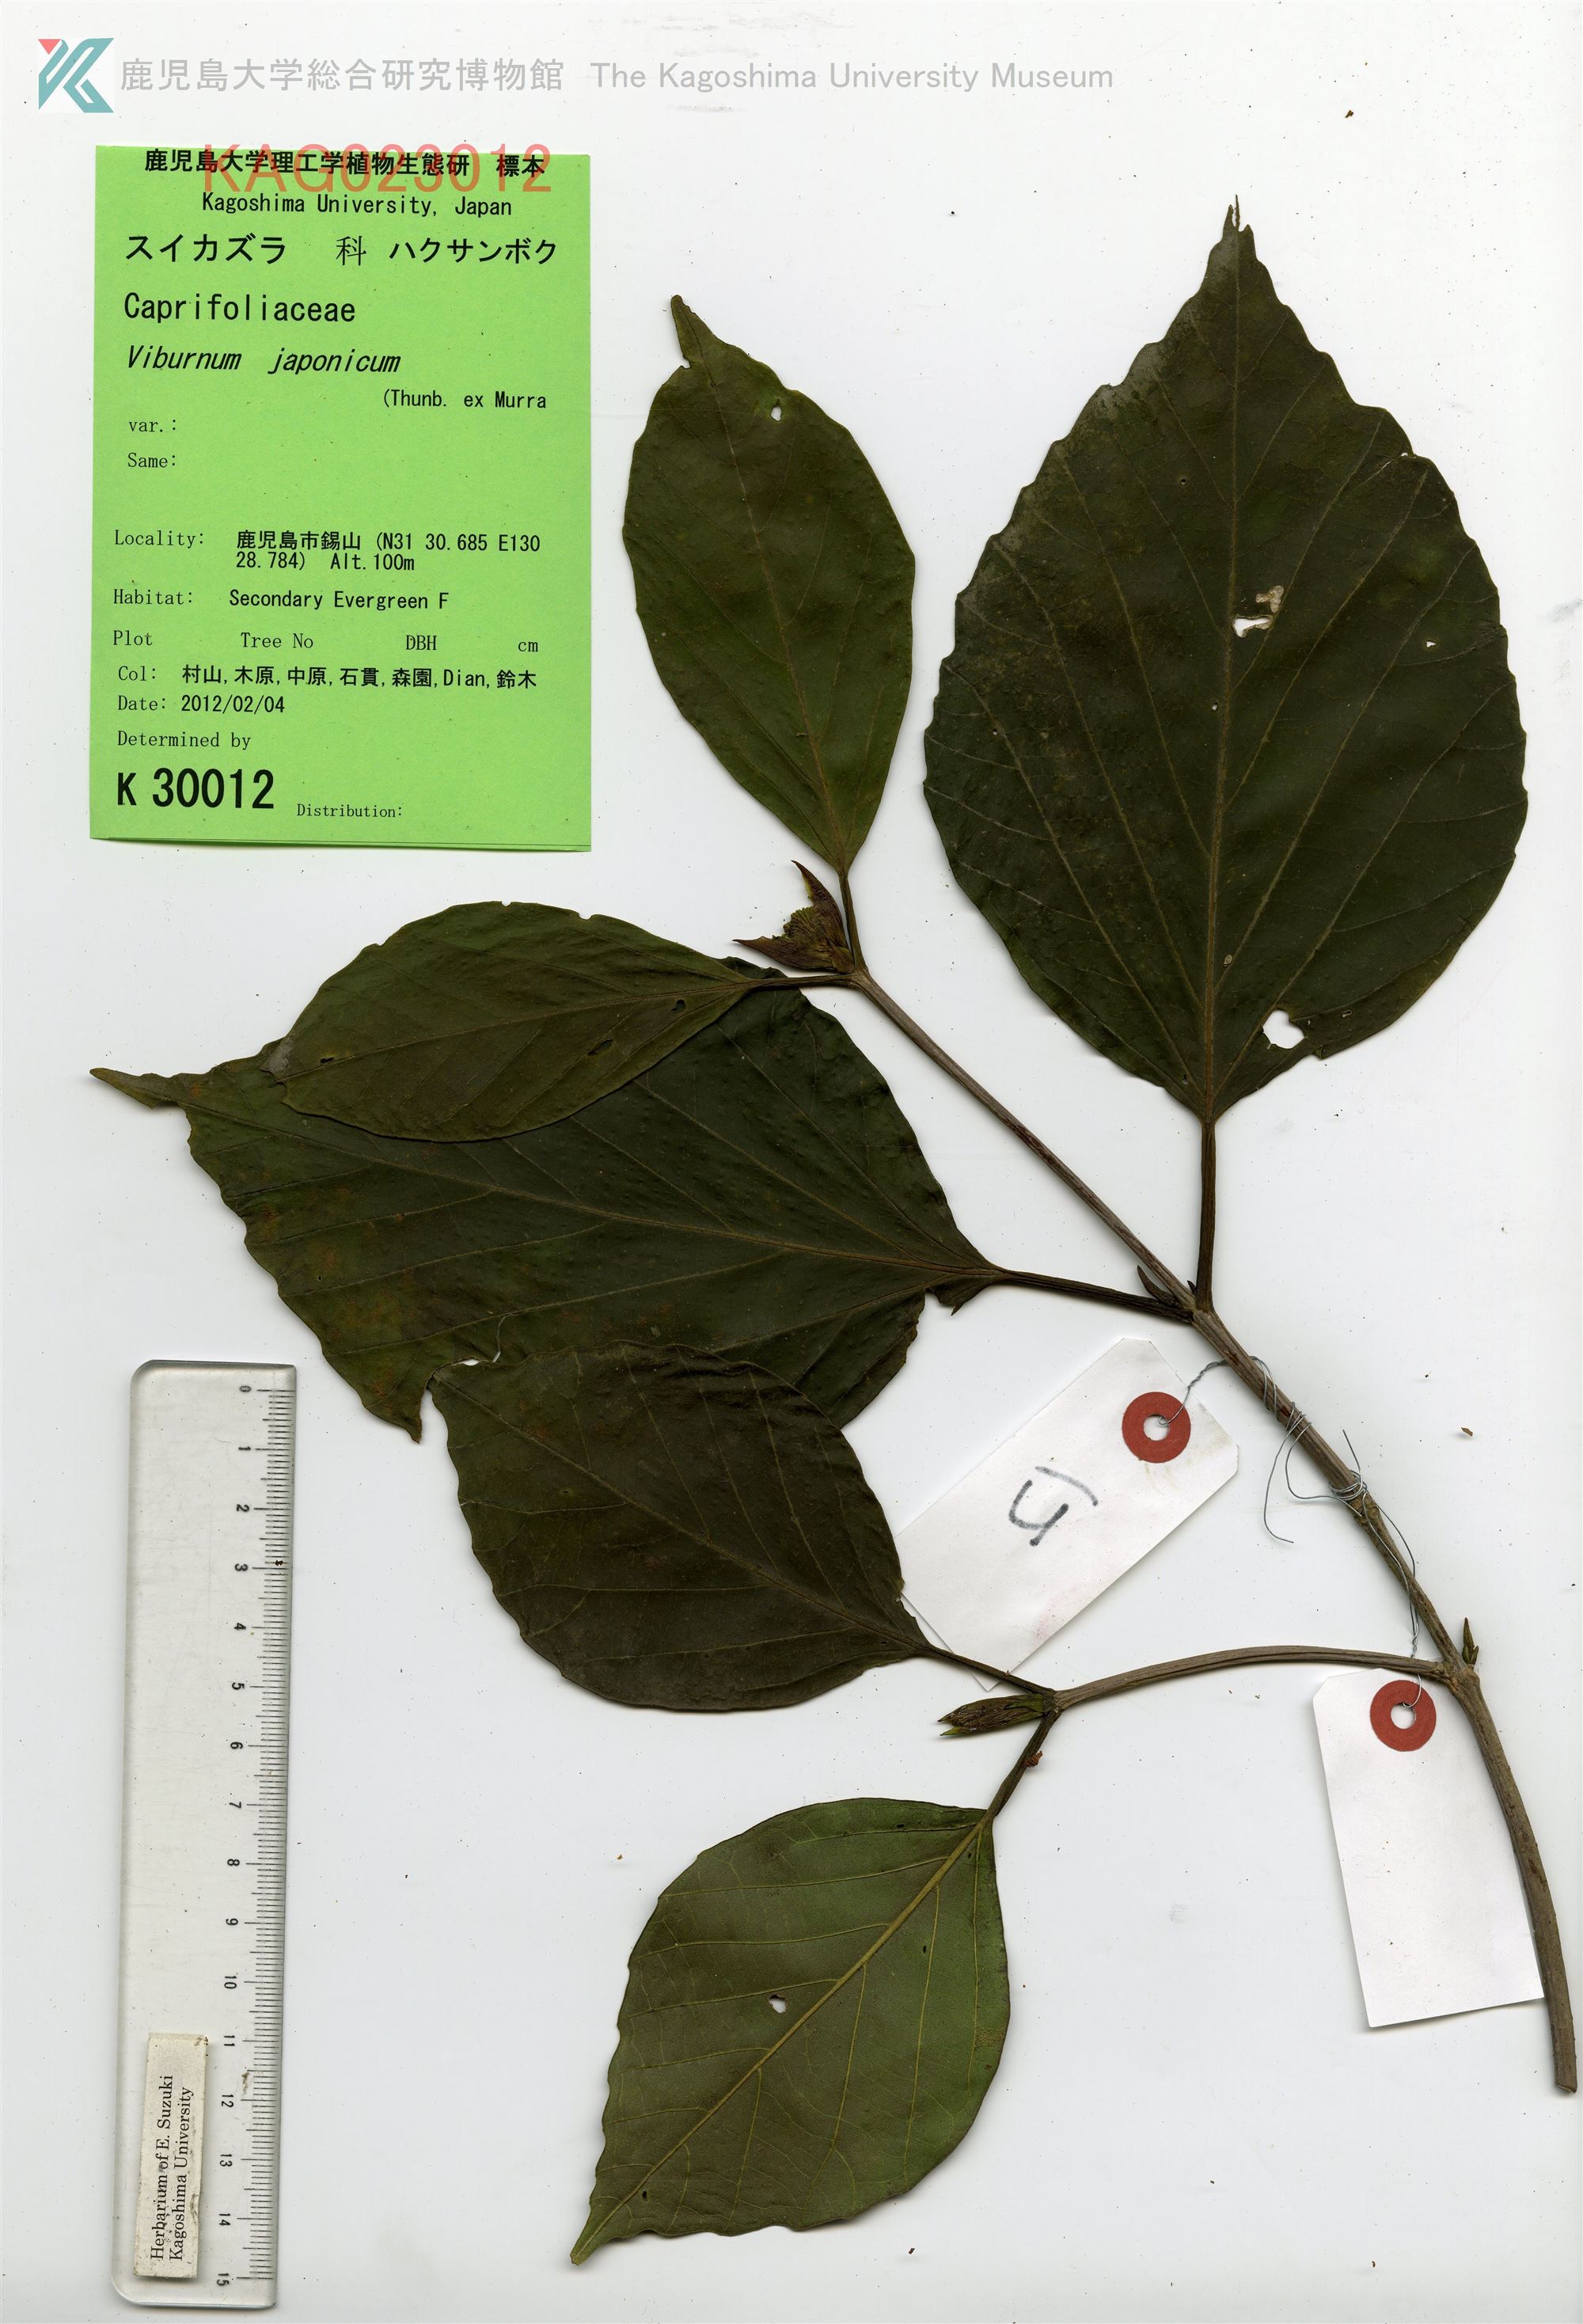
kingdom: Plantae
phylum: Tracheophyta
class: Magnoliopsida
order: Dipsacales
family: Viburnaceae
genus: Viburnum
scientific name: Viburnum japonicum
